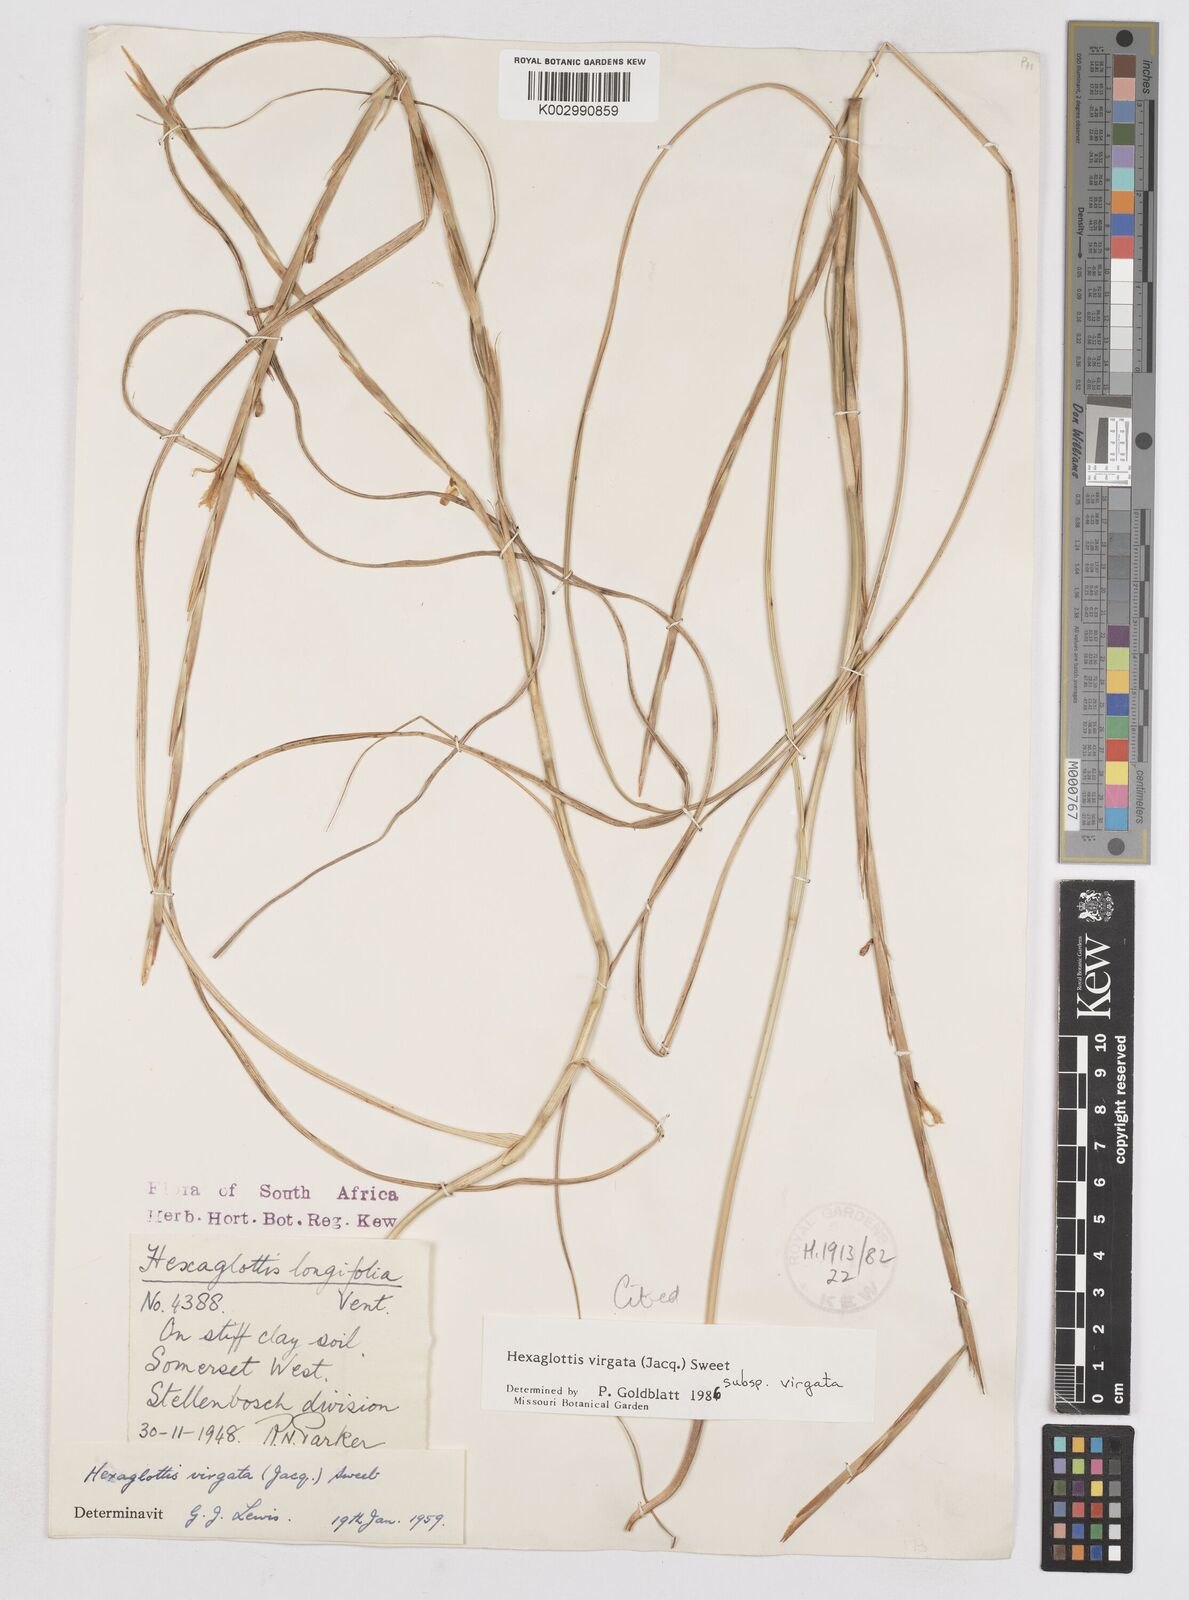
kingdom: Plantae
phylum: Tracheophyta
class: Liliopsida
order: Asparagales
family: Iridaceae
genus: Moraea
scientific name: Moraea virgata
